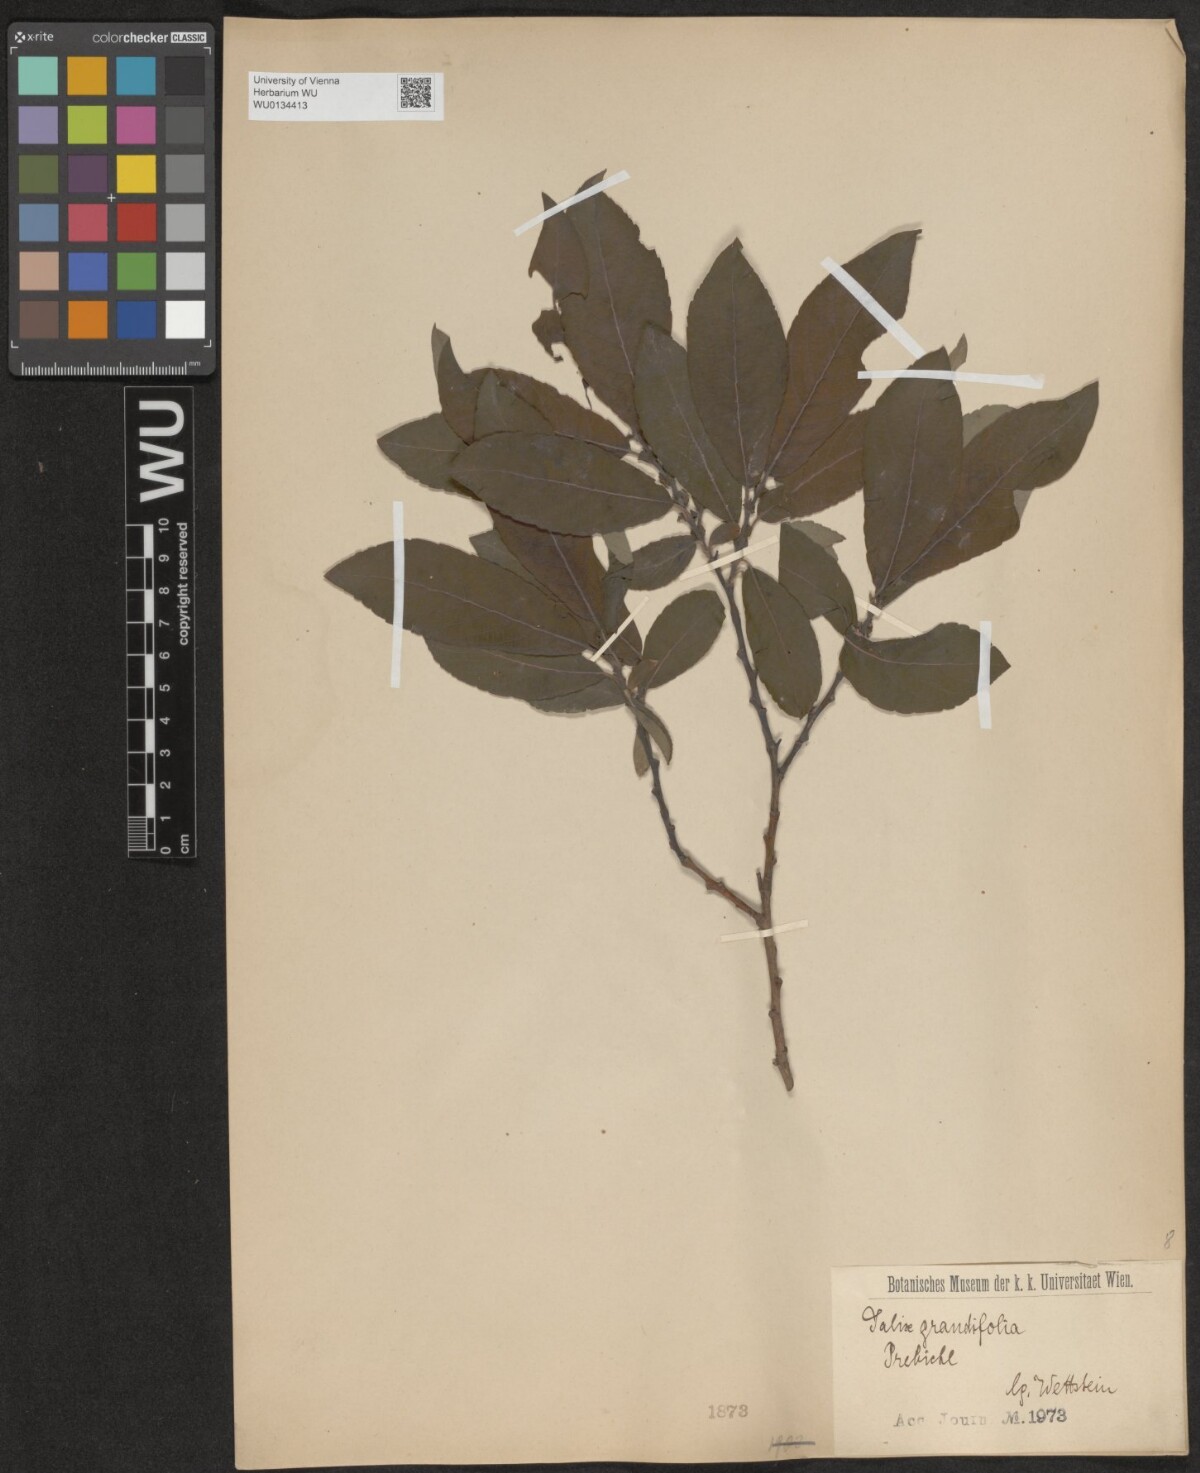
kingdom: Plantae
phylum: Tracheophyta
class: Magnoliopsida
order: Malpighiales
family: Salicaceae
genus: Salix
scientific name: Salix appendiculata
